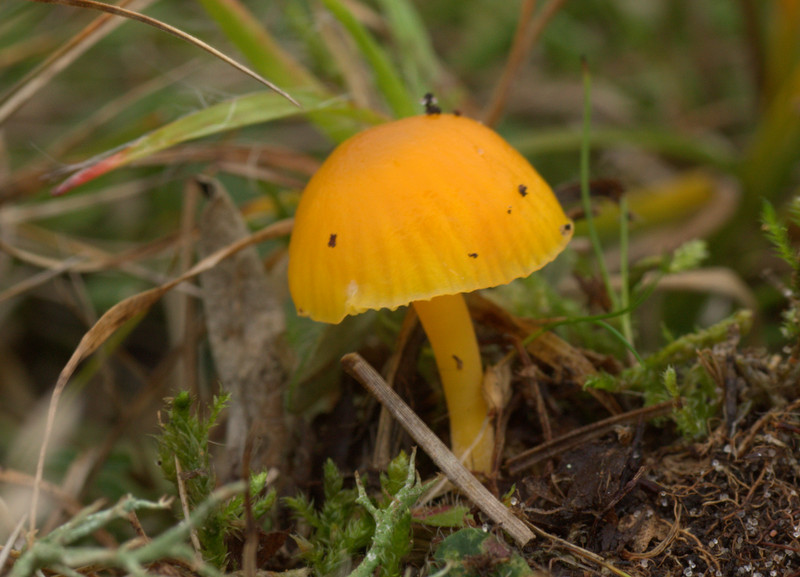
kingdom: Fungi
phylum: Basidiomycota
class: Agaricomycetes
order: Agaricales
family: Hygrophoraceae
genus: Hygrocybe
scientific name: Hygrocybe ceracea
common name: voksgul vokshat
